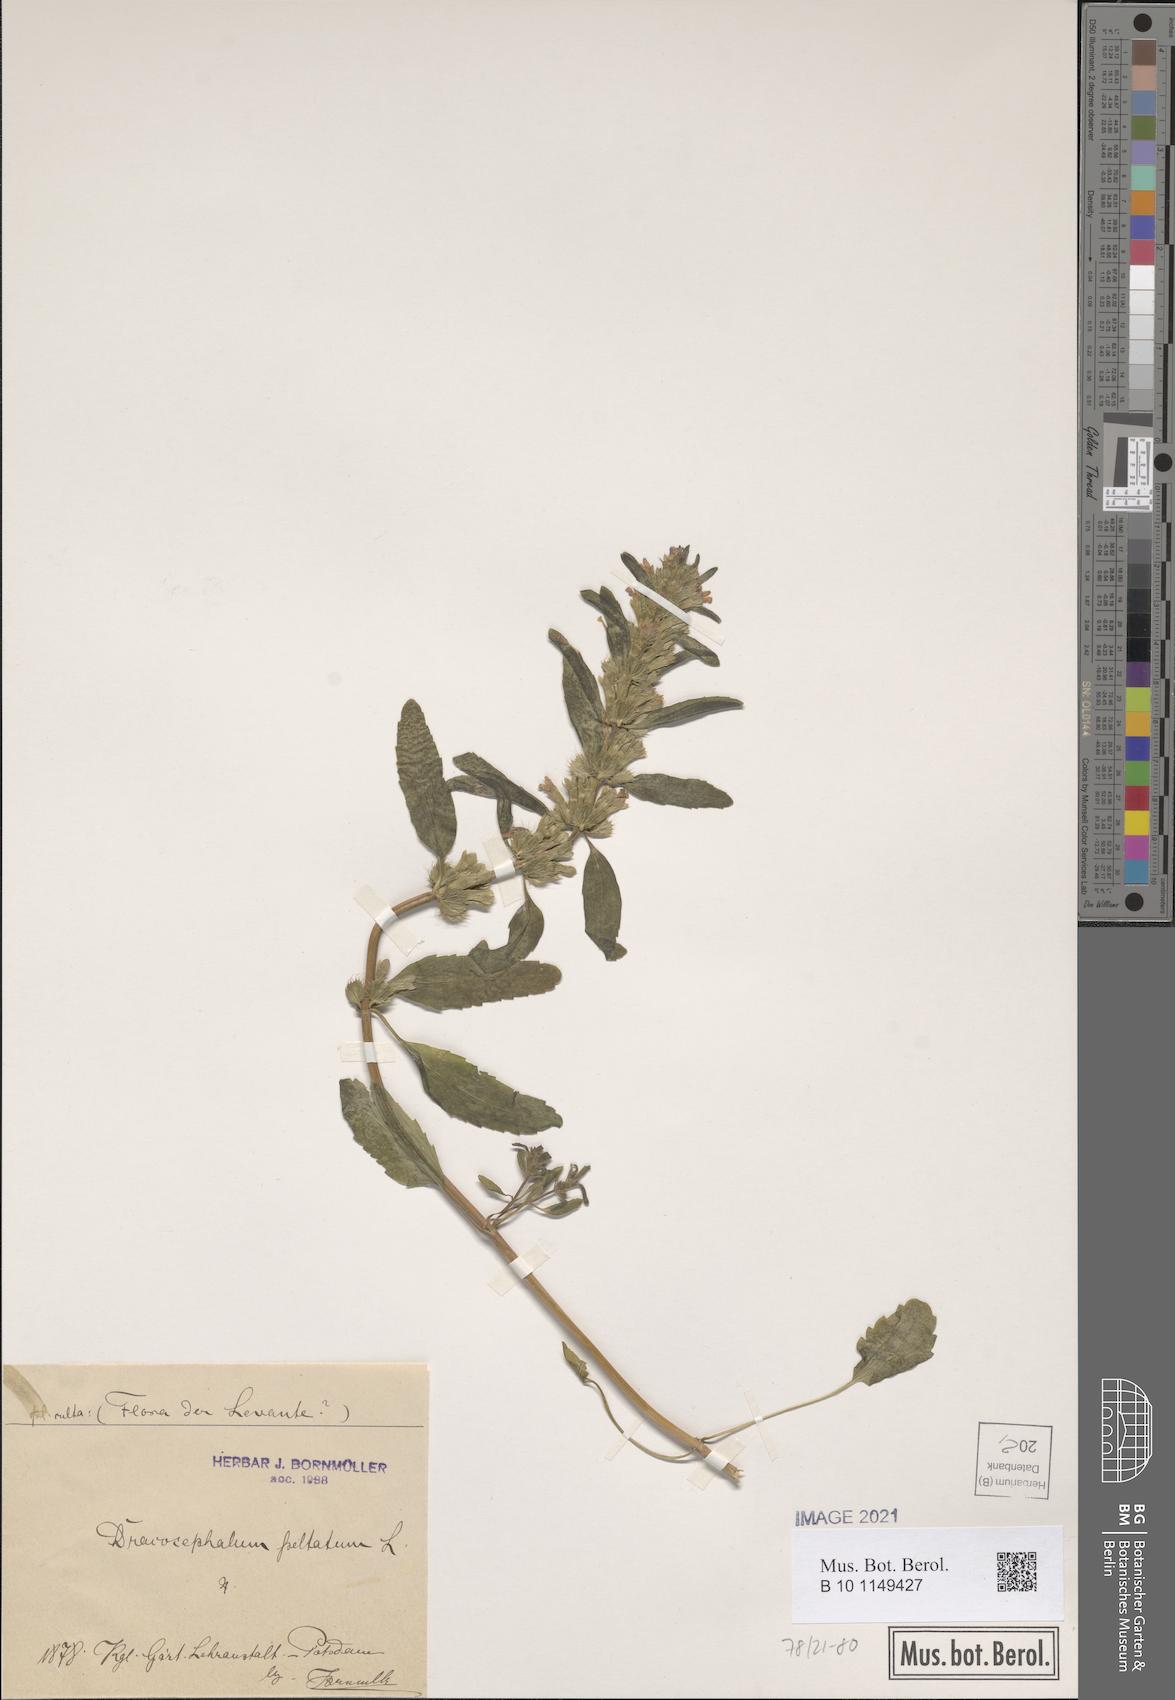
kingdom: Plantae
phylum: Tracheophyta
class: Magnoliopsida
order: Lamiales
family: Lamiaceae
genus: Lallemantia
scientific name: Lallemantia peltata
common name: Lion's heart
